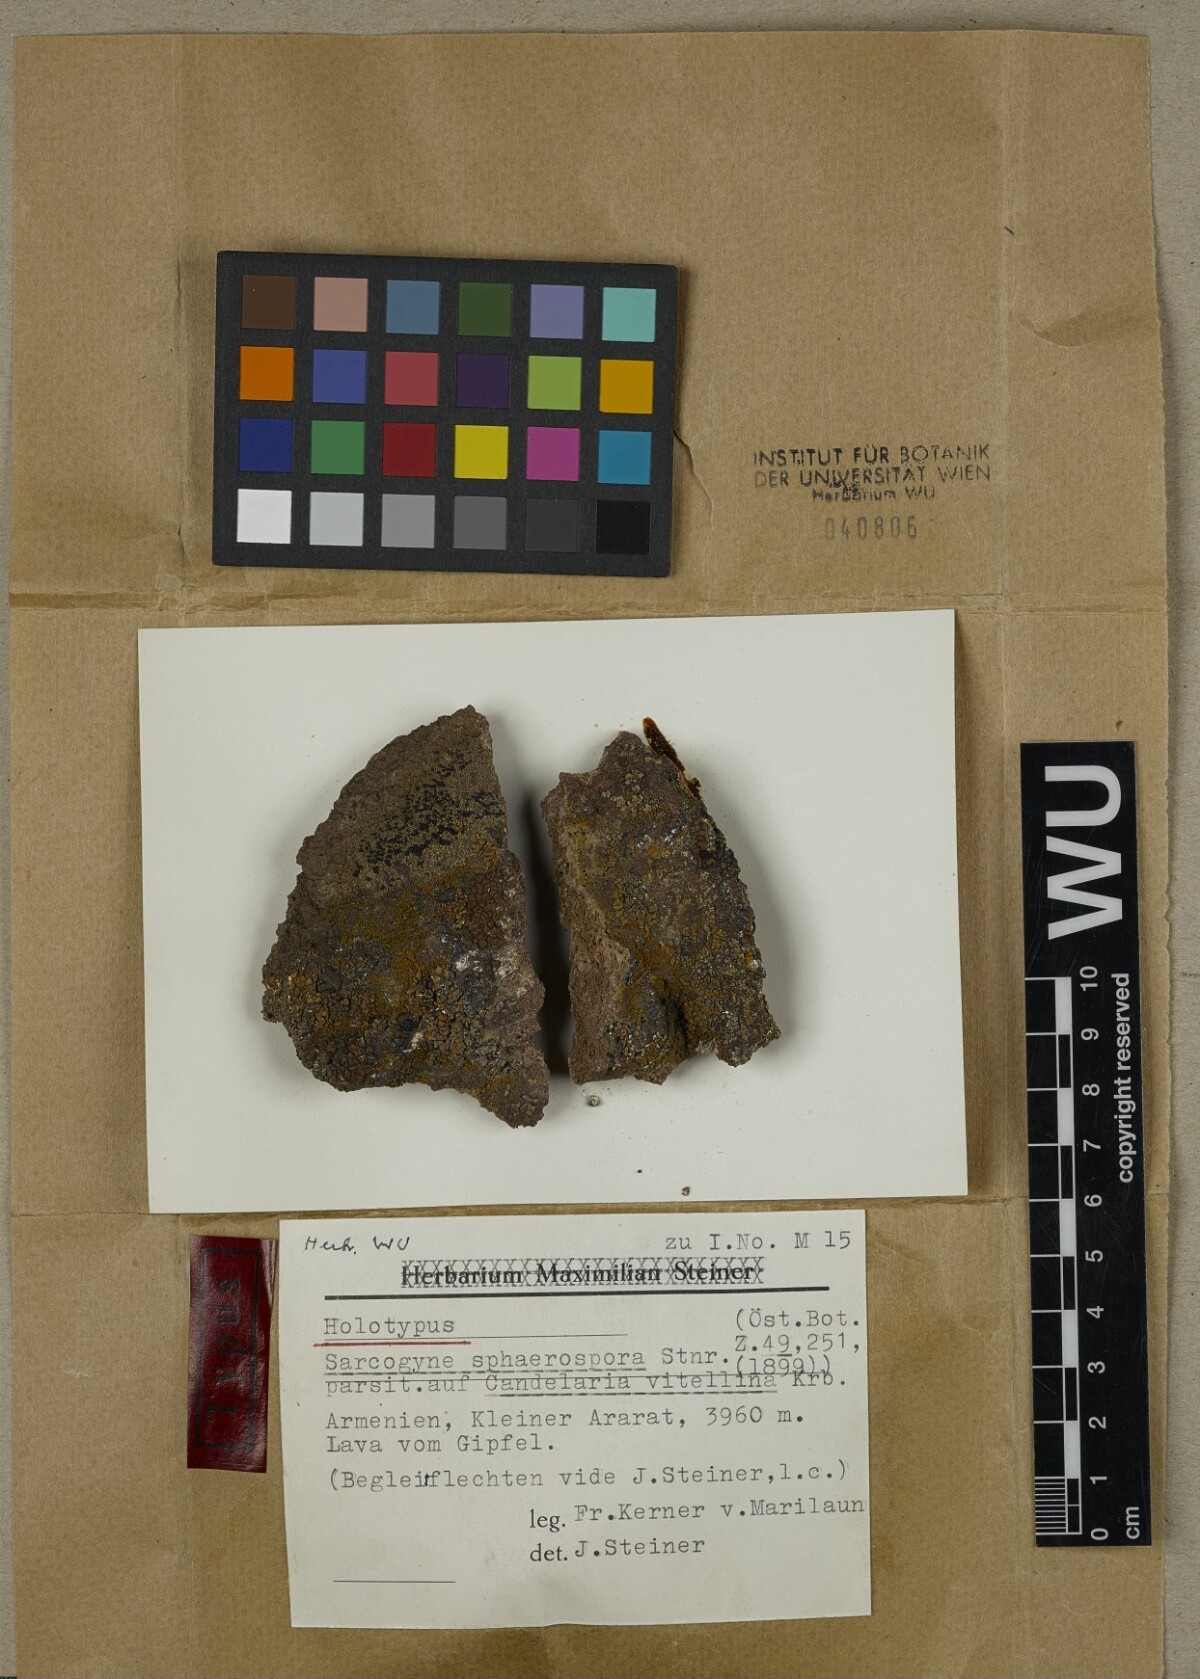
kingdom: Fungi
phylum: Ascomycota
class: Lecanoromycetes
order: Acarosporales
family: Acarosporaceae
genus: Acarospora
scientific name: Acarospora lendemeri
